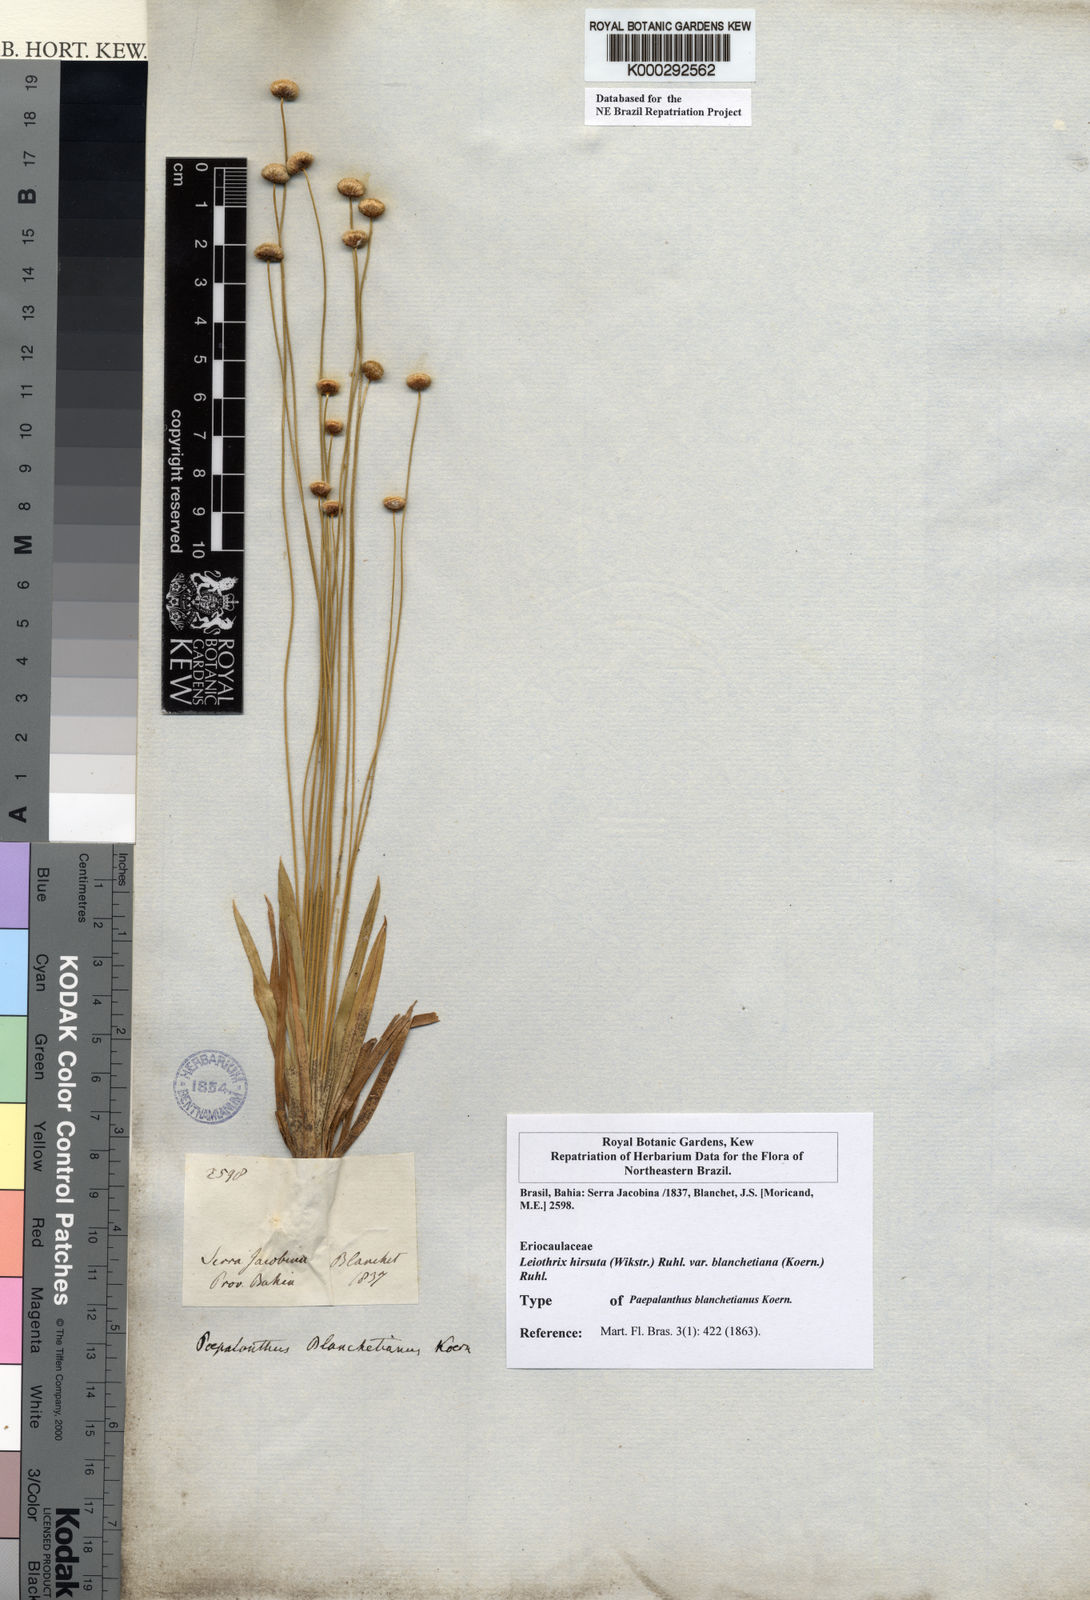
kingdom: Plantae
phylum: Tracheophyta
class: Liliopsida
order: Poales
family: Eriocaulaceae
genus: Leiothrix
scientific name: Leiothrix hirsuta
